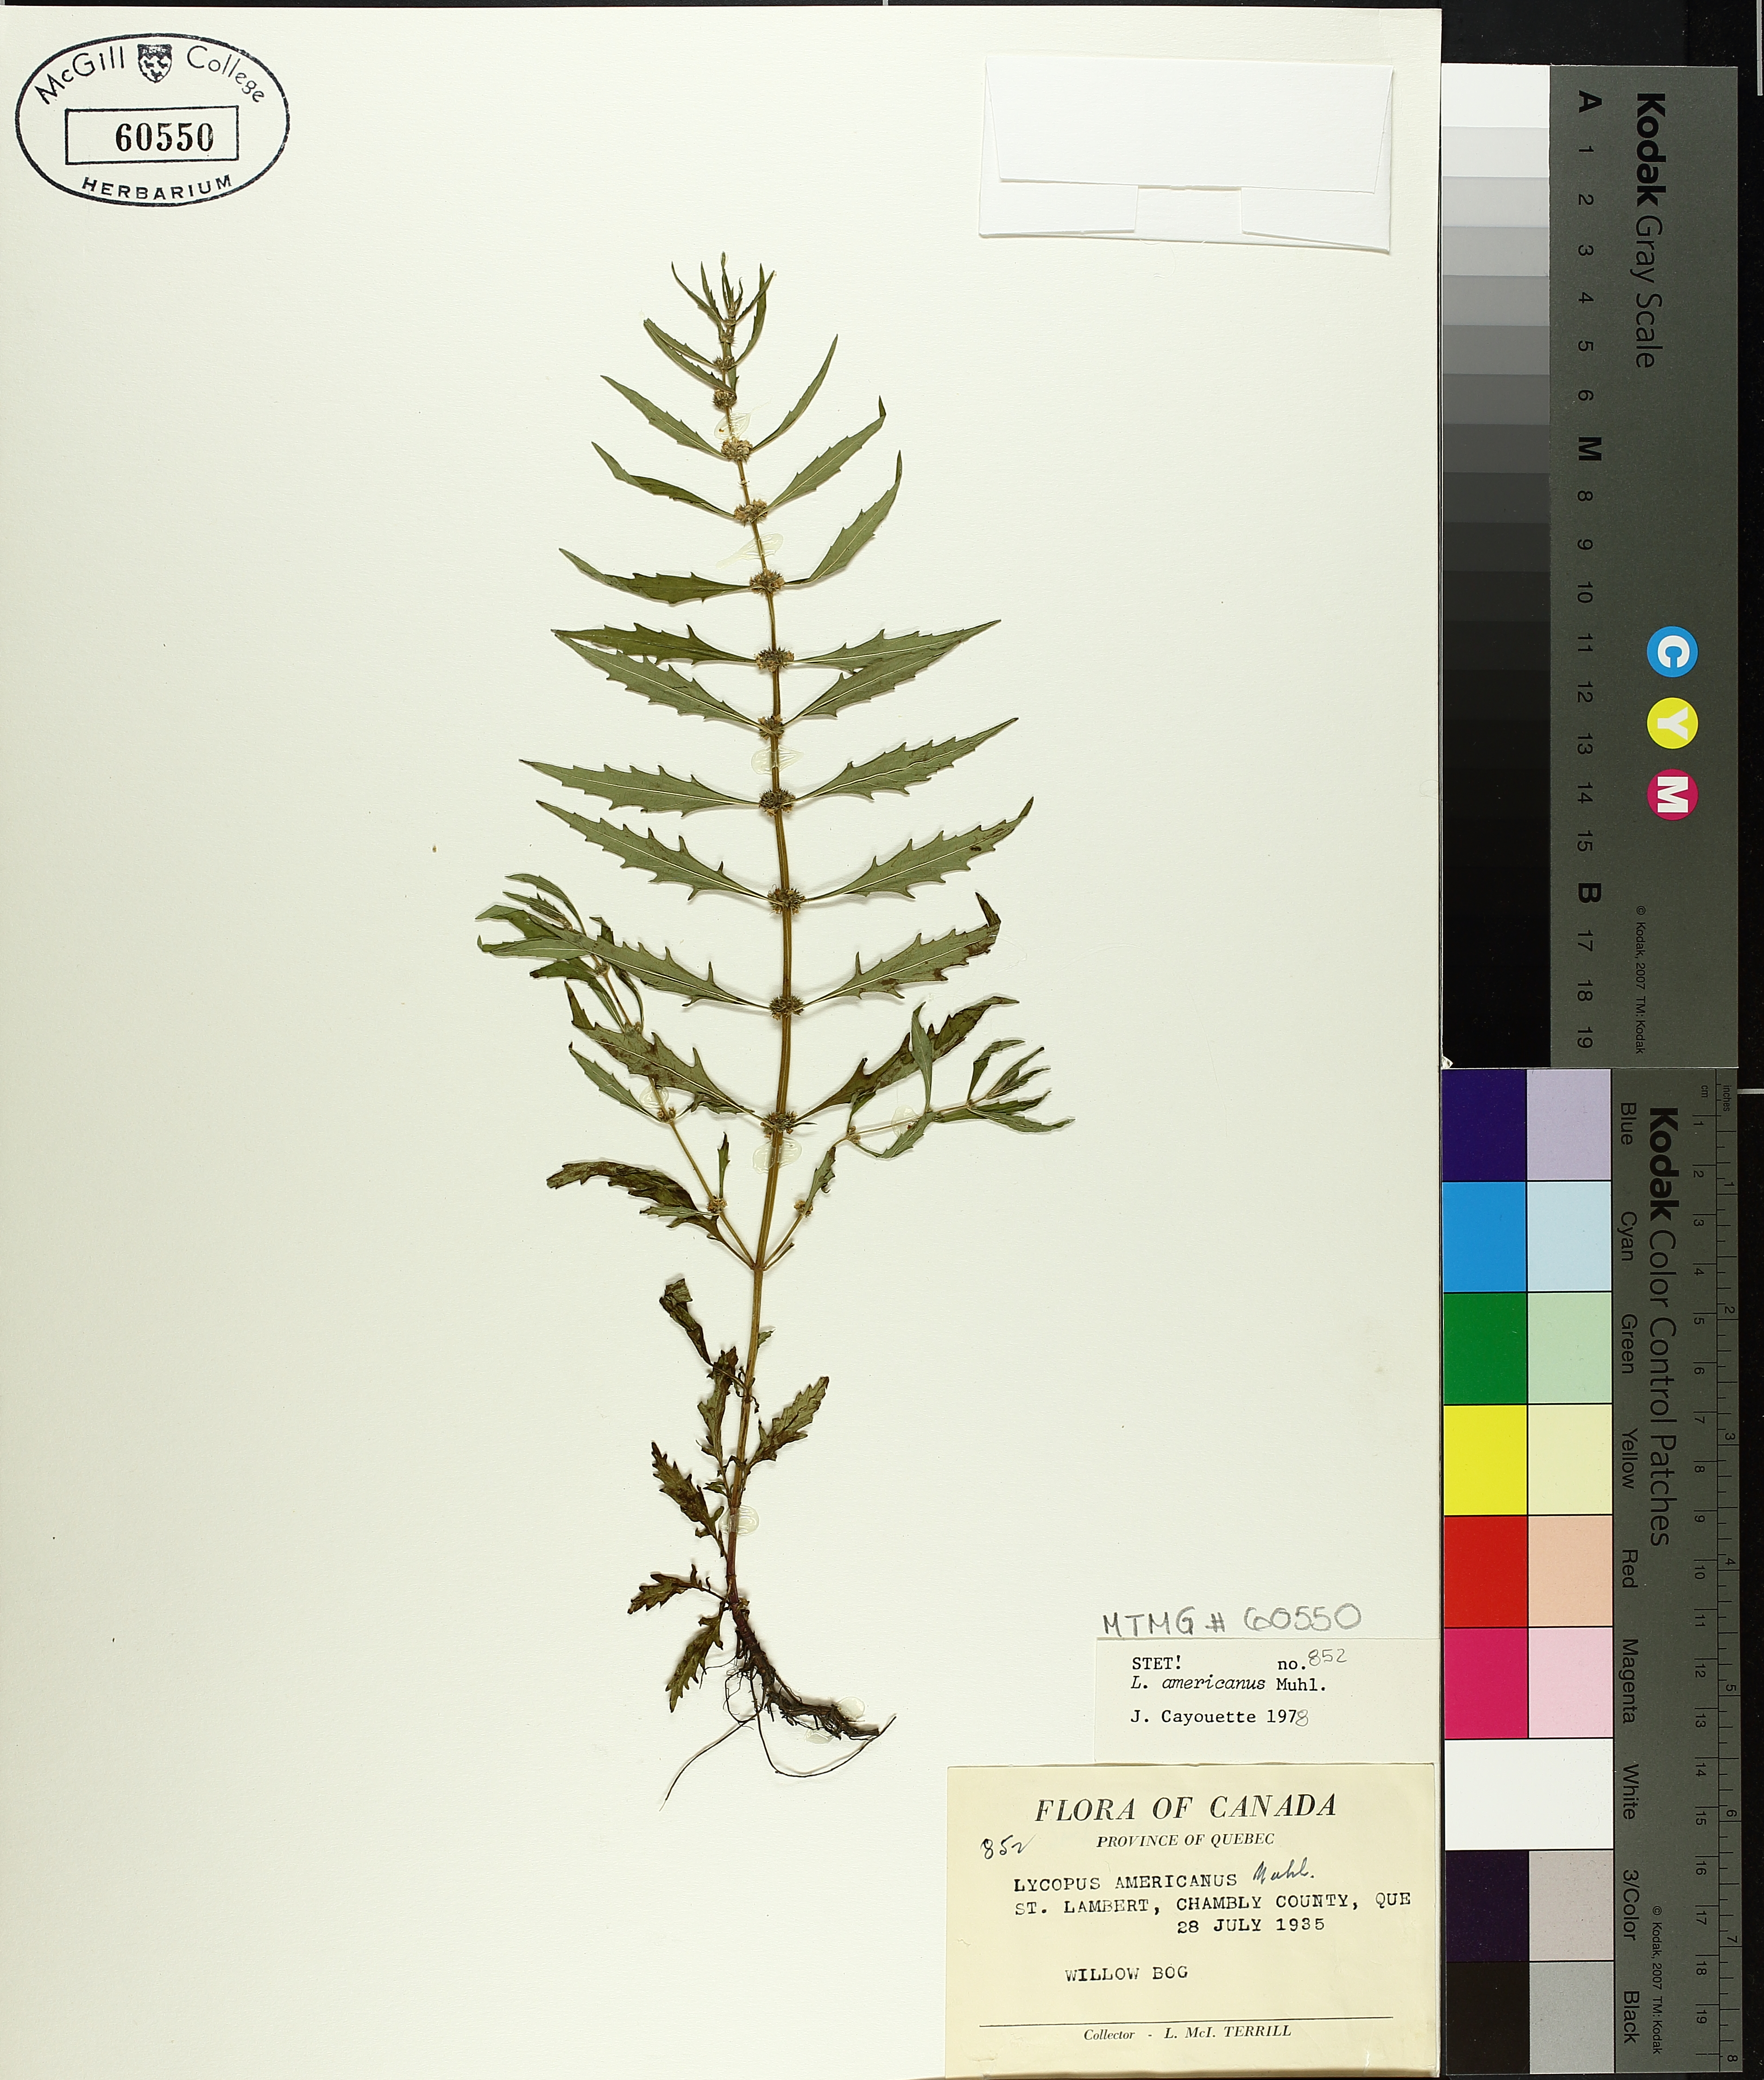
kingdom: Plantae
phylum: Tracheophyta
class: Magnoliopsida
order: Lamiales
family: Lamiaceae
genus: Lycopus
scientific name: Lycopus americanus
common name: American bugleweed
